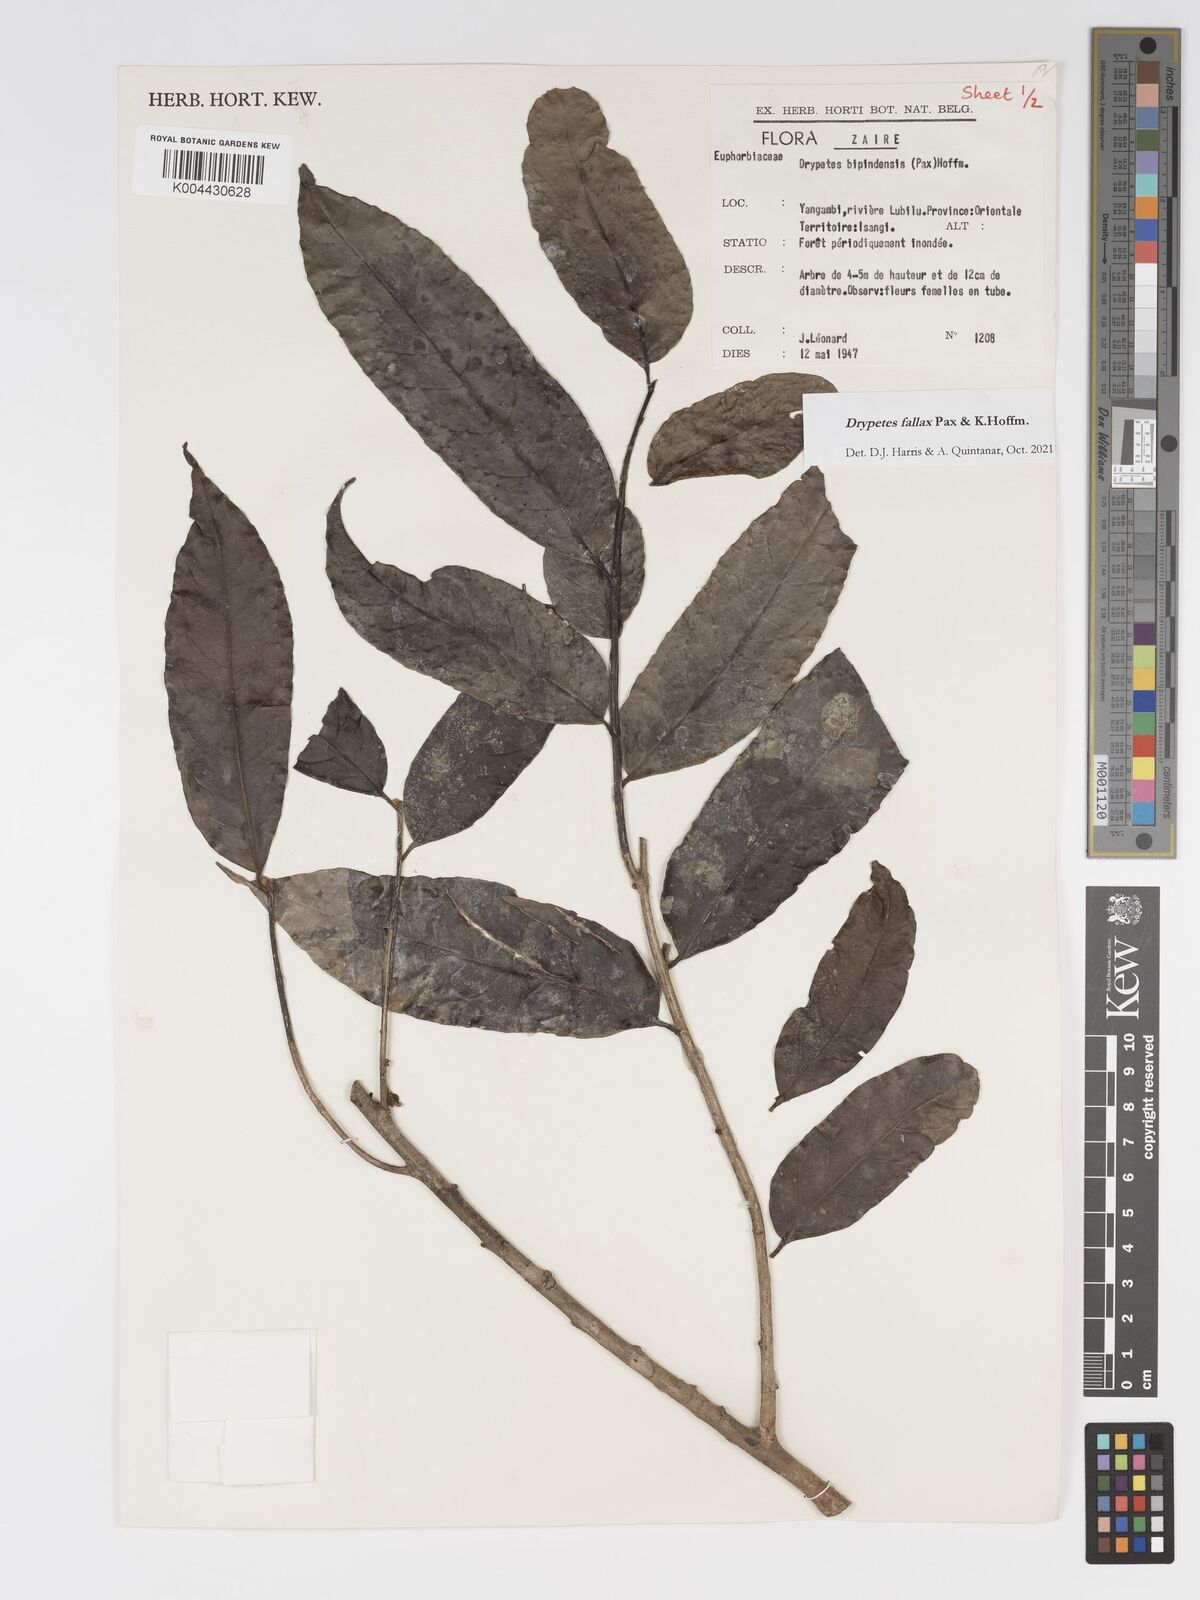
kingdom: Plantae
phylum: Tracheophyta
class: Magnoliopsida
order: Malpighiales
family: Putranjivaceae
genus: Drypetes
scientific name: Drypetes fallax
